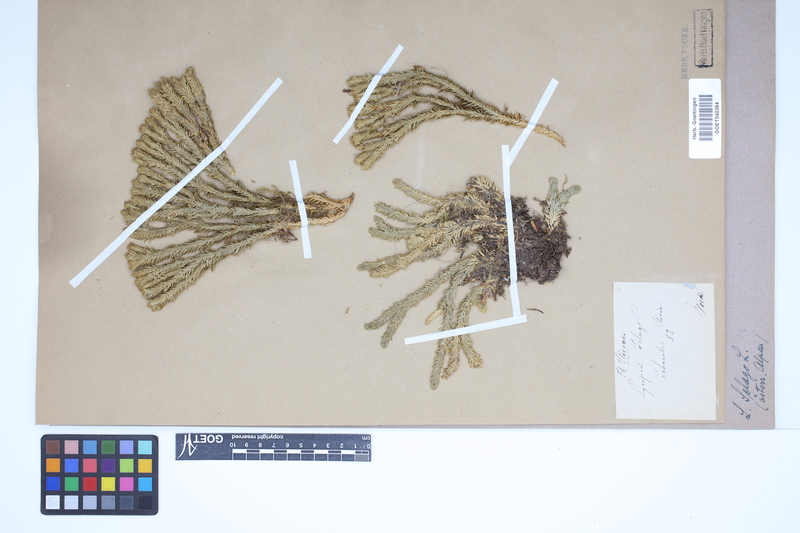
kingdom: Plantae
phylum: Tracheophyta
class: Lycopodiopsida
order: Lycopodiales
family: Lycopodiaceae
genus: Huperzia
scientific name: Huperzia selago
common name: Northern firmoss
